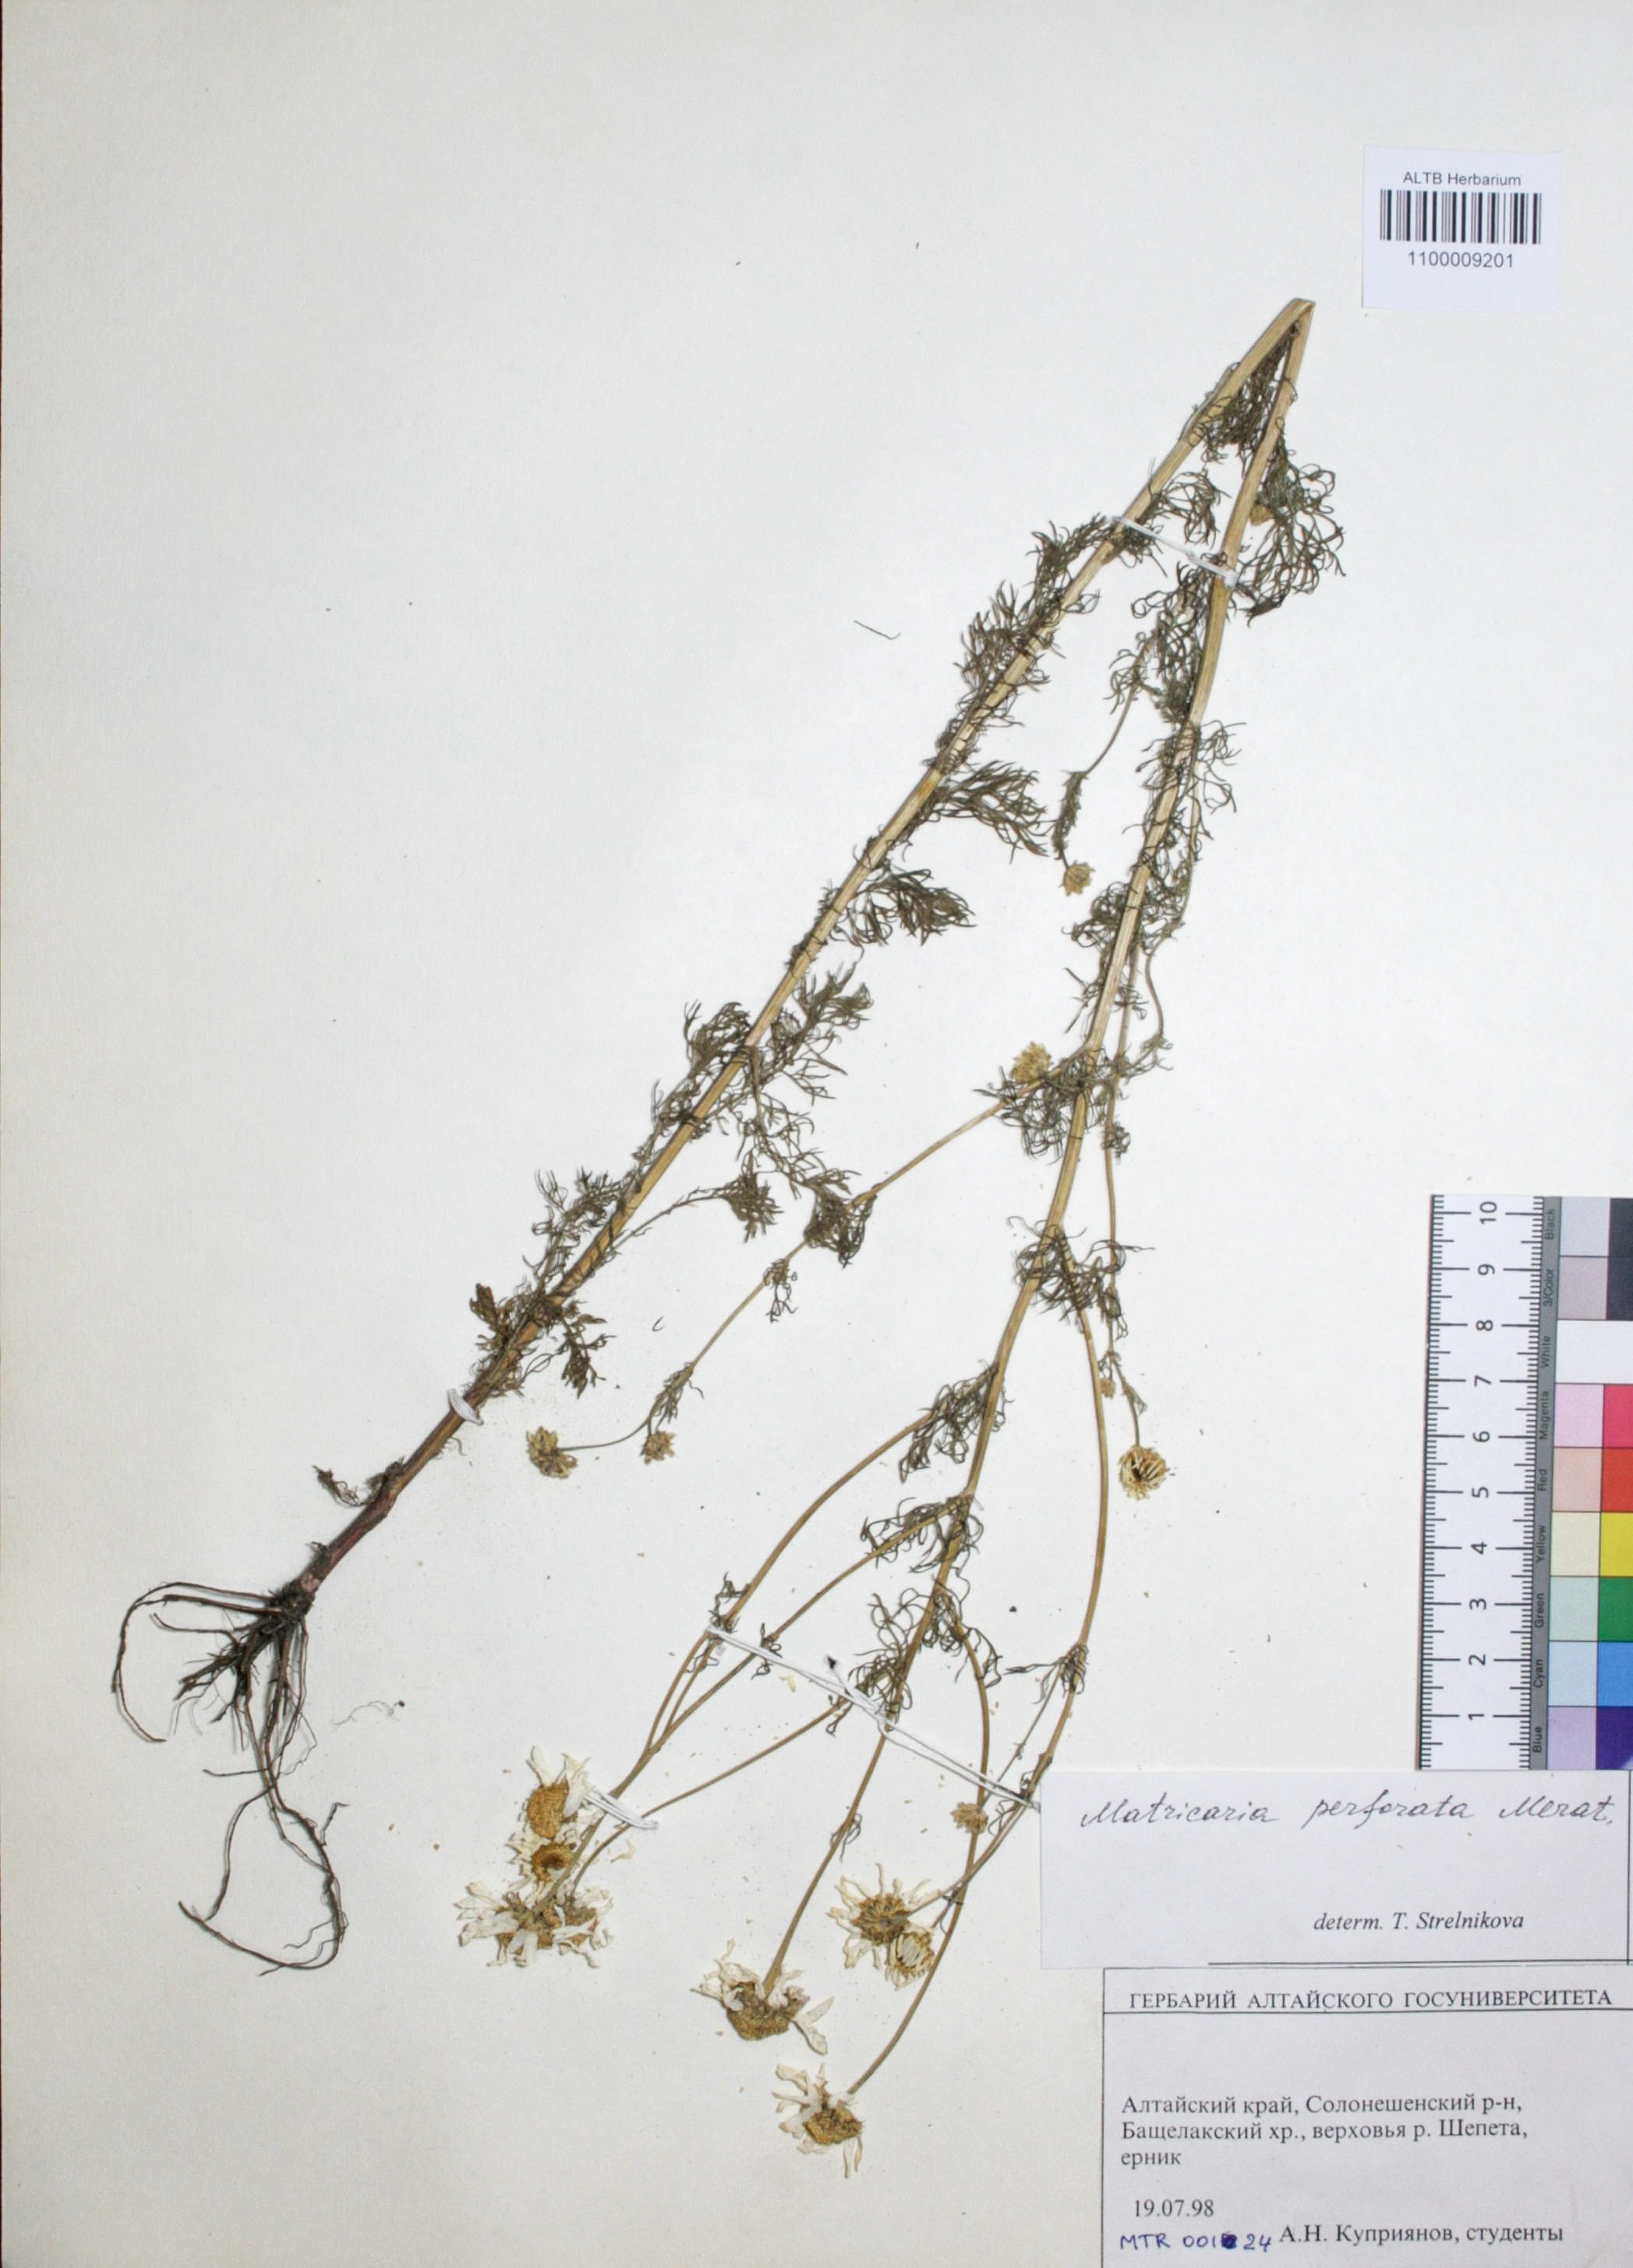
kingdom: Plantae
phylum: Tracheophyta
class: Magnoliopsida
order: Asterales
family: Asteraceae
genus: Tripleurospermum
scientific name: Tripleurospermum inodorum
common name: Scentless mayweed
